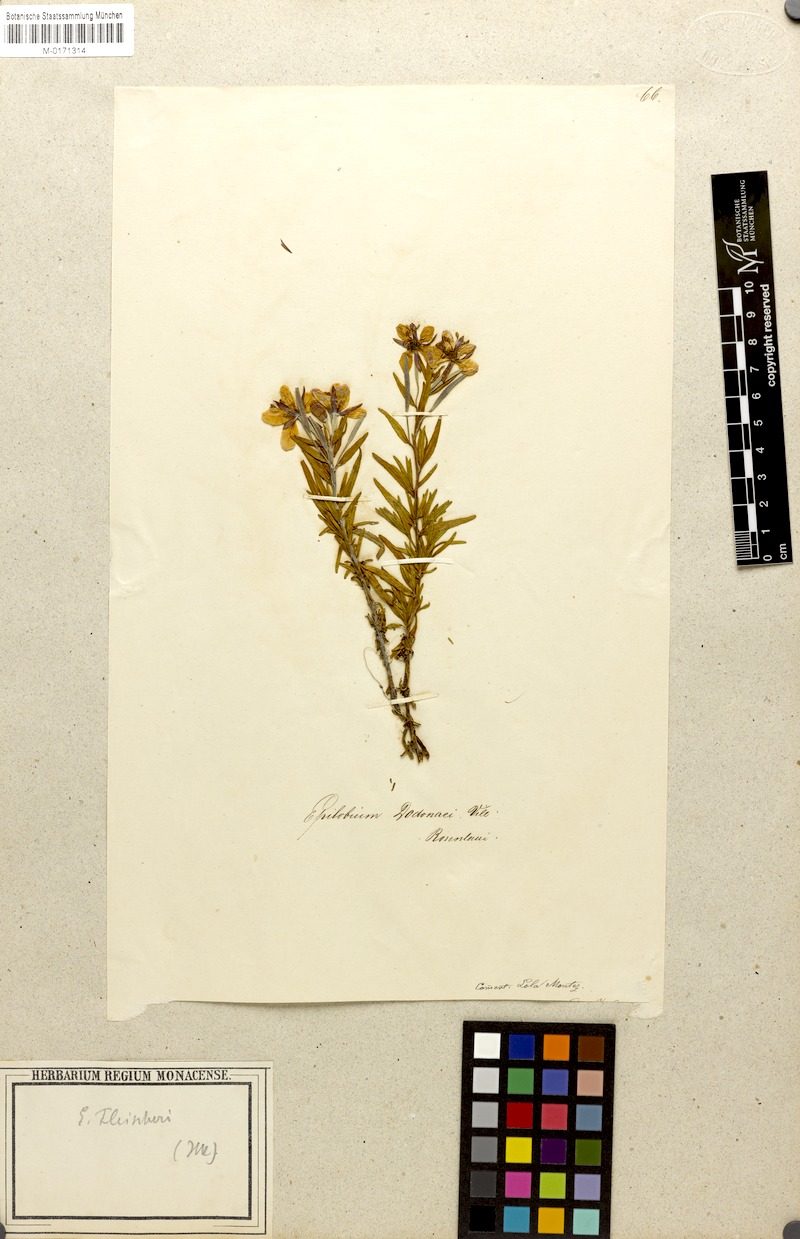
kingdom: Plantae
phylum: Tracheophyta
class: Magnoliopsida
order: Myrtales
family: Onagraceae
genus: Chamaenerion
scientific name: Chamaenerion fleischeri
